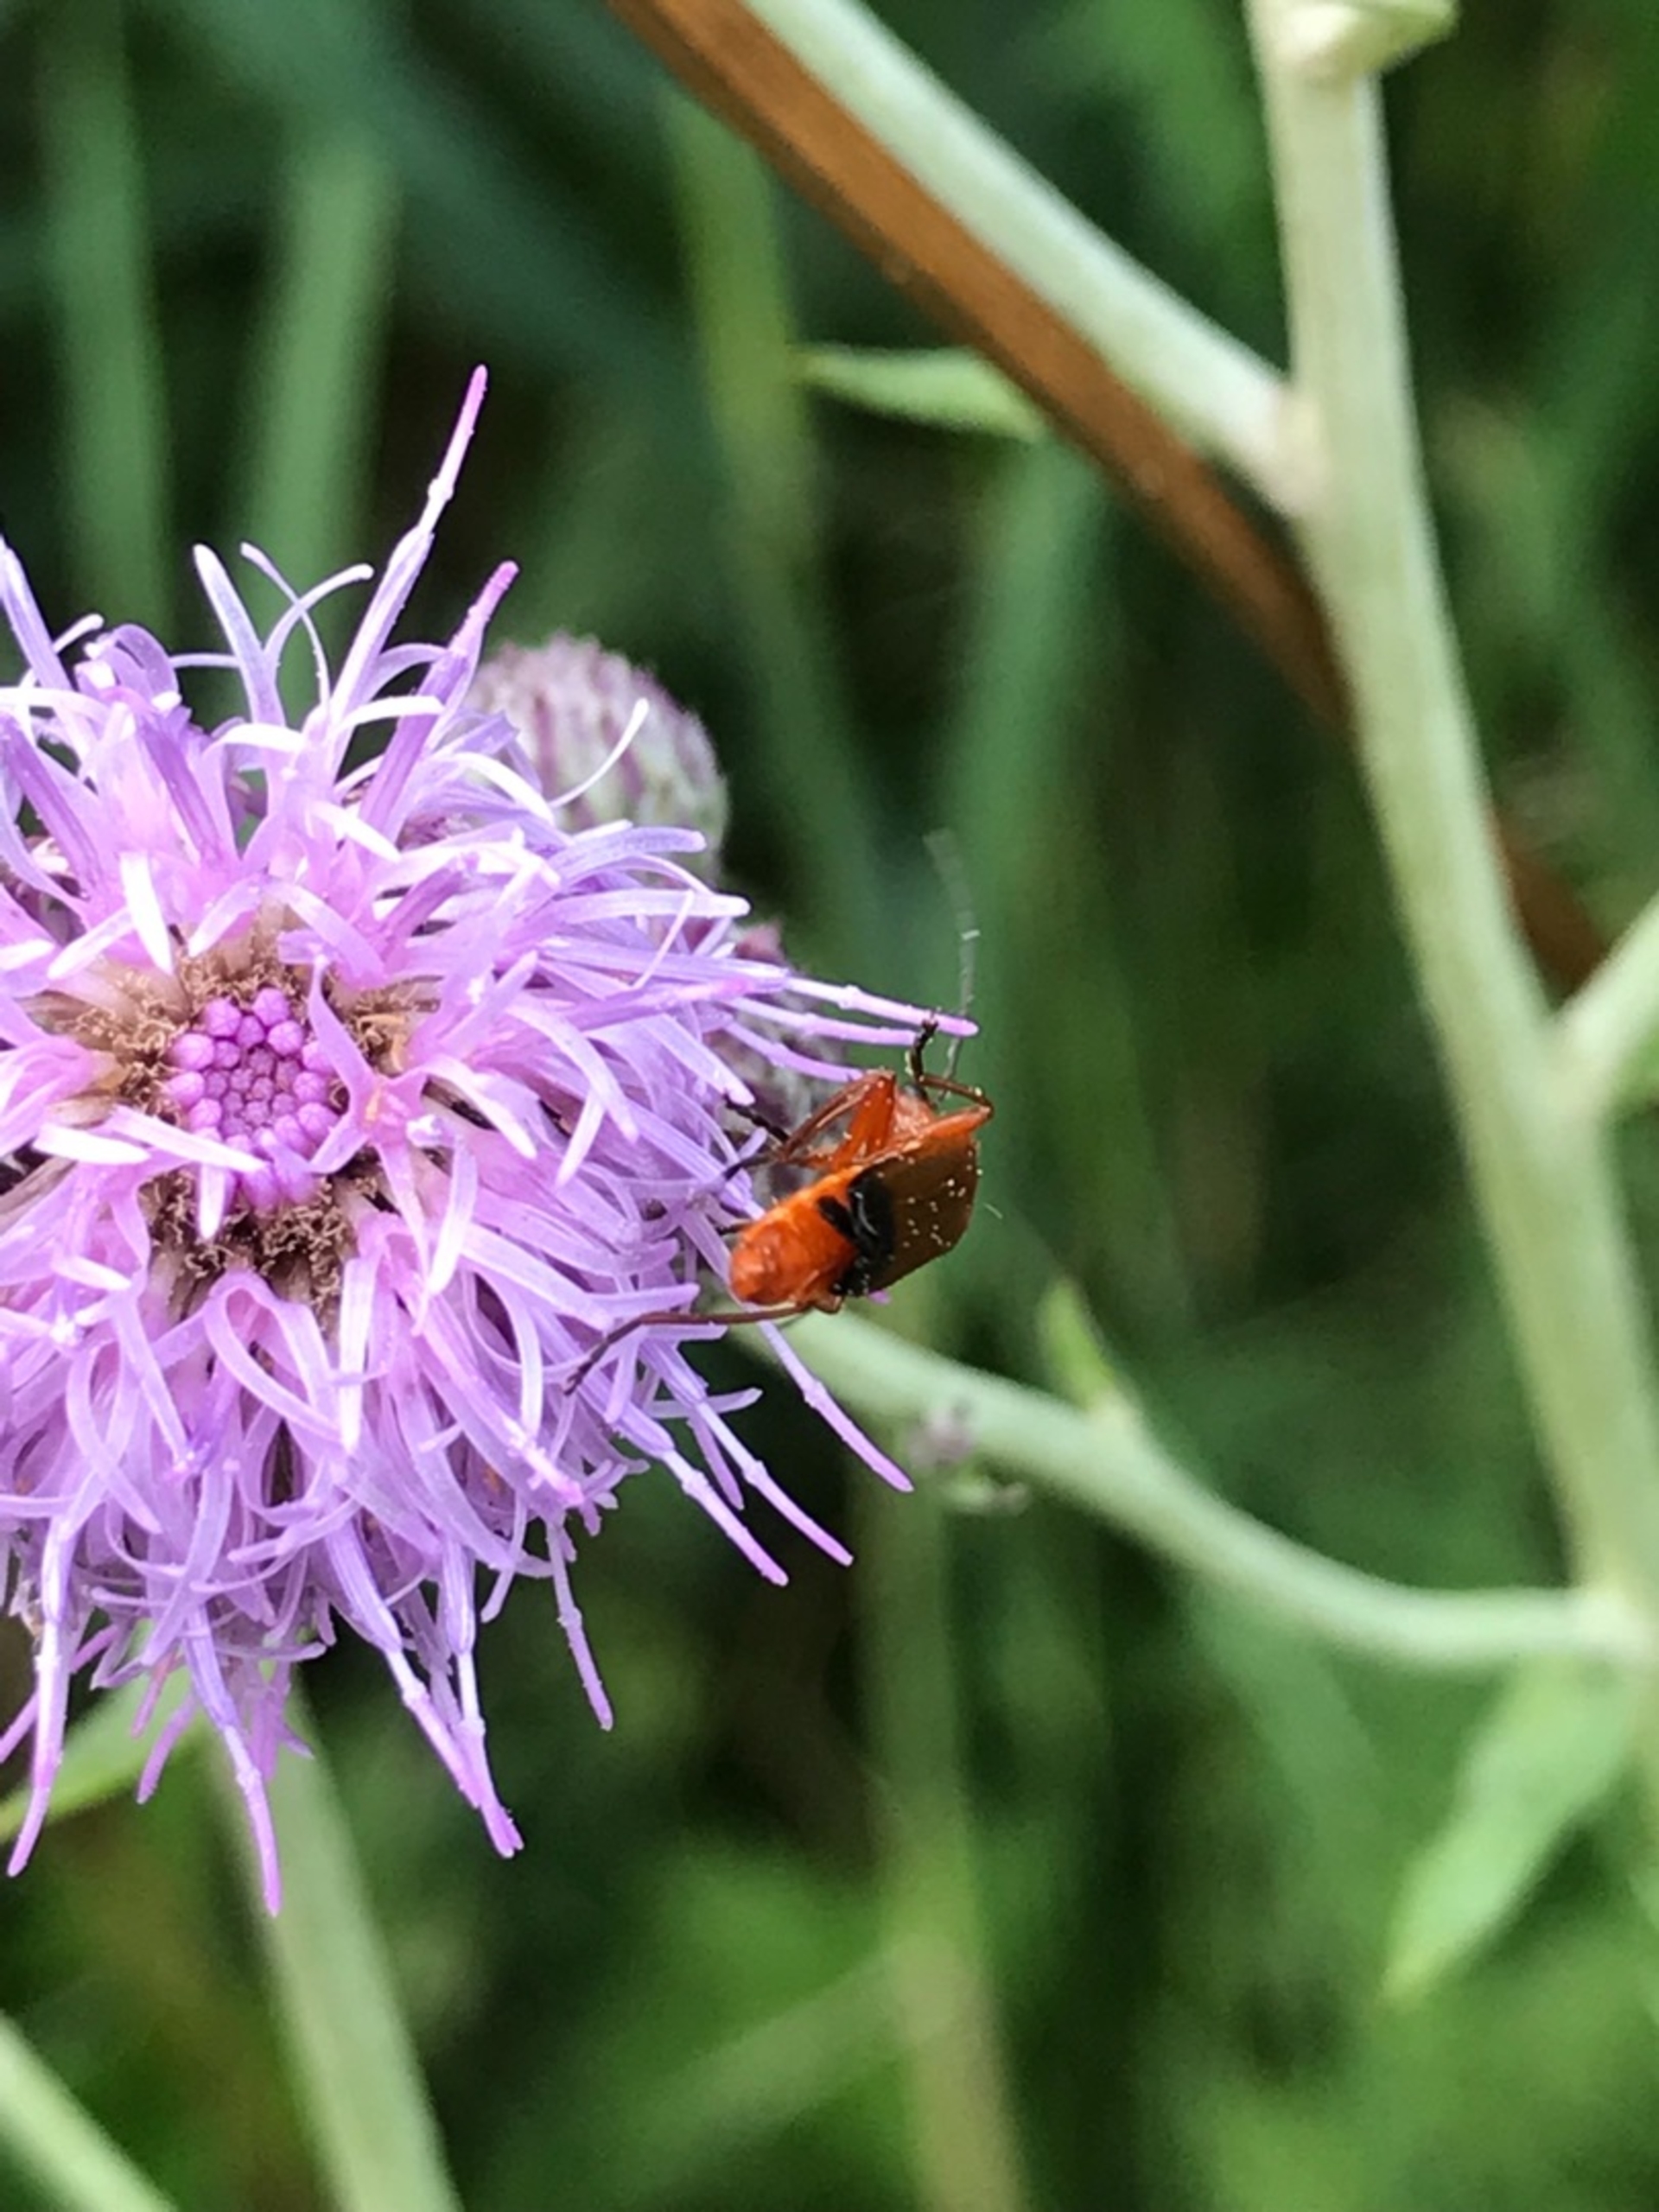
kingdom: Animalia
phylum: Arthropoda
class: Insecta
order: Coleoptera
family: Cantharidae
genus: Rhagonycha
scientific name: Rhagonycha fulva
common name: Præstebille
